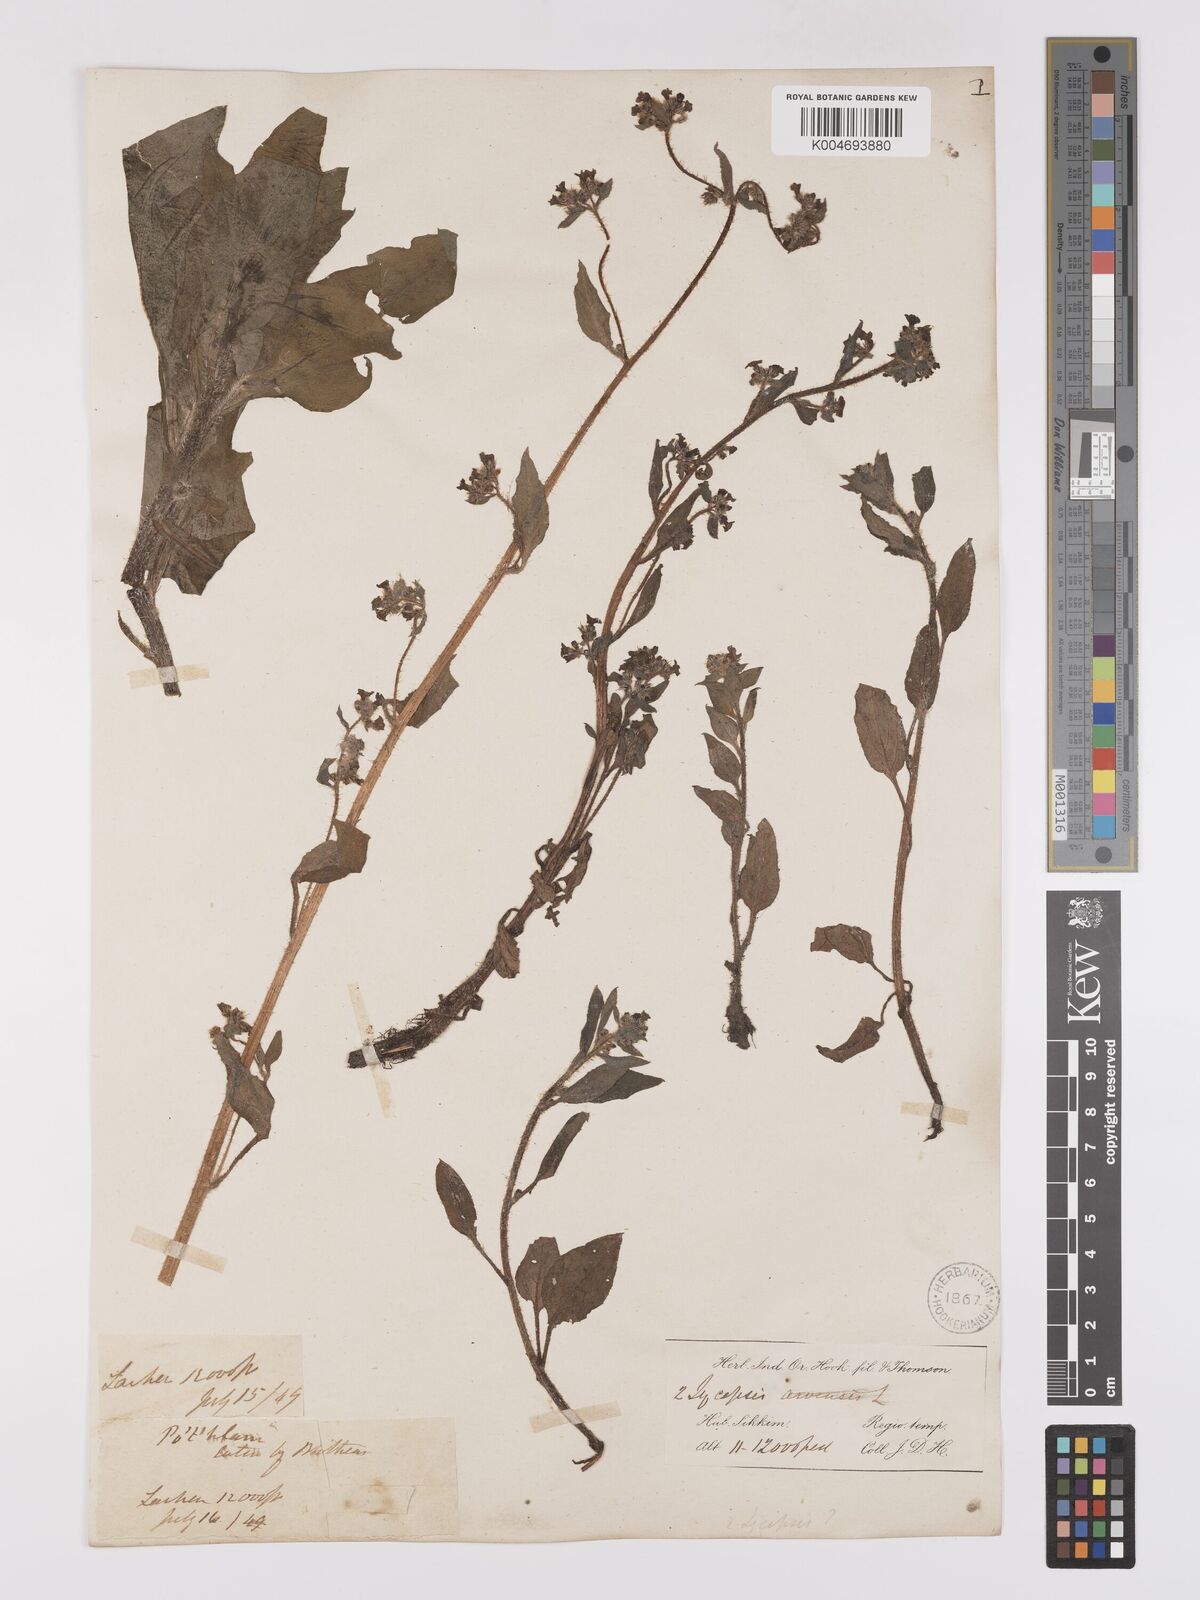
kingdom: Plantae
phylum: Tracheophyta
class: Magnoliopsida
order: Boraginales
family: Boraginaceae
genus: Microula
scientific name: Microula sikkimensis
